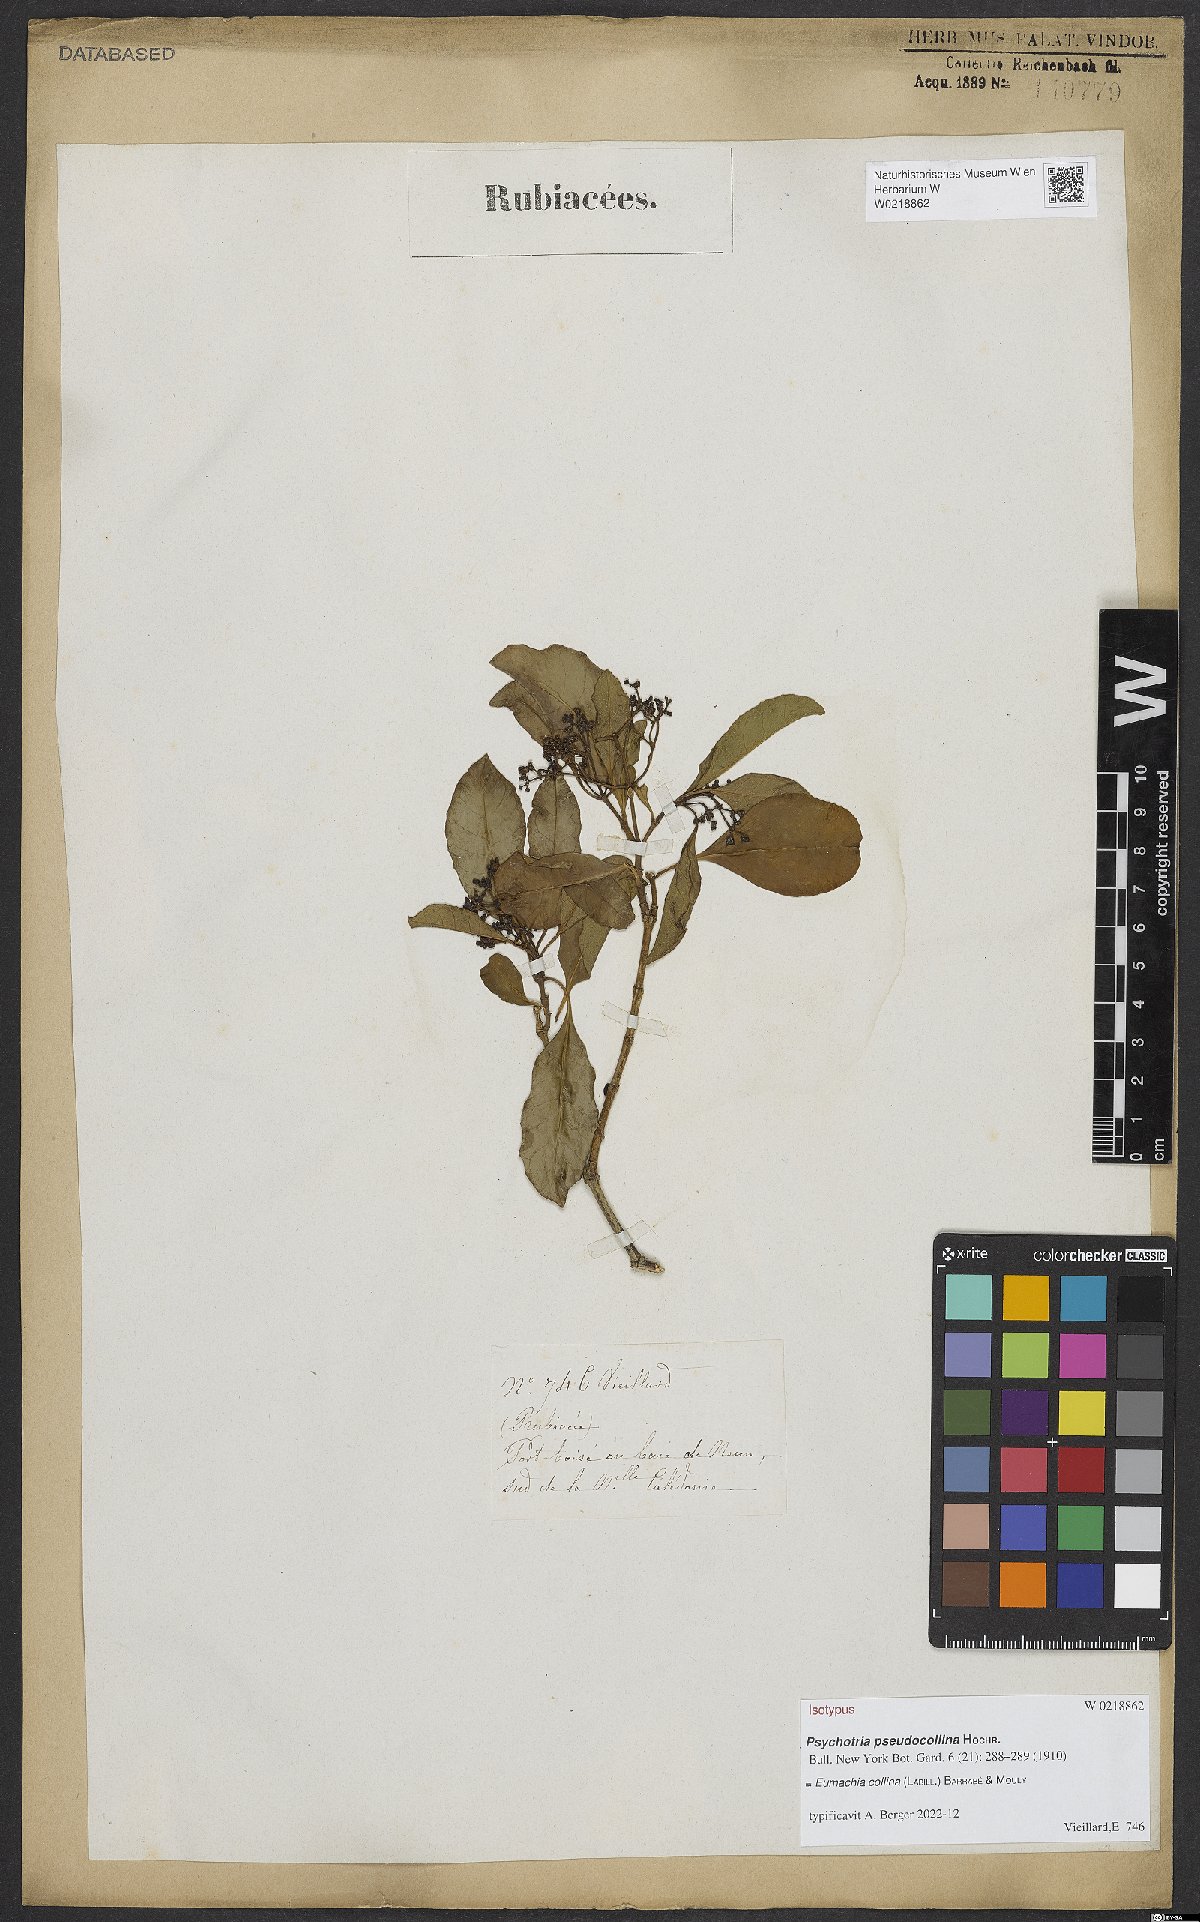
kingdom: Plantae
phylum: Tracheophyta
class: Magnoliopsida
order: Gentianales
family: Rubiaceae
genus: Eumachia
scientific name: Eumachia collina
